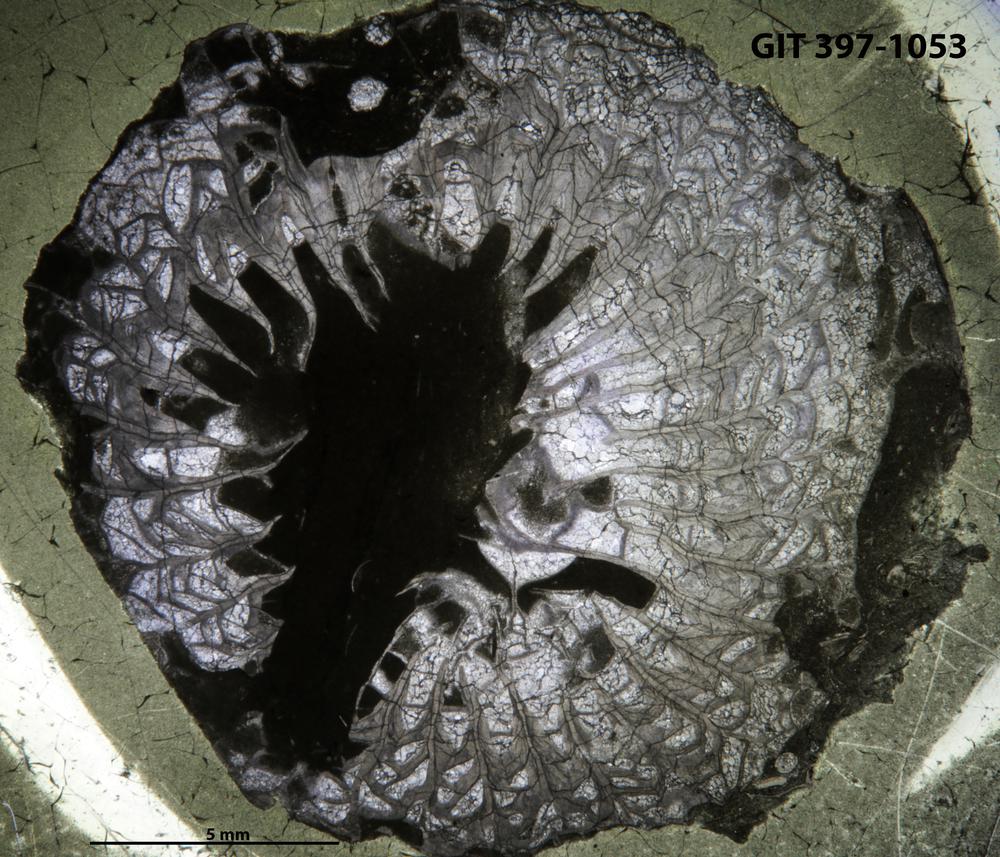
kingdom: Animalia
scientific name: Animalia
